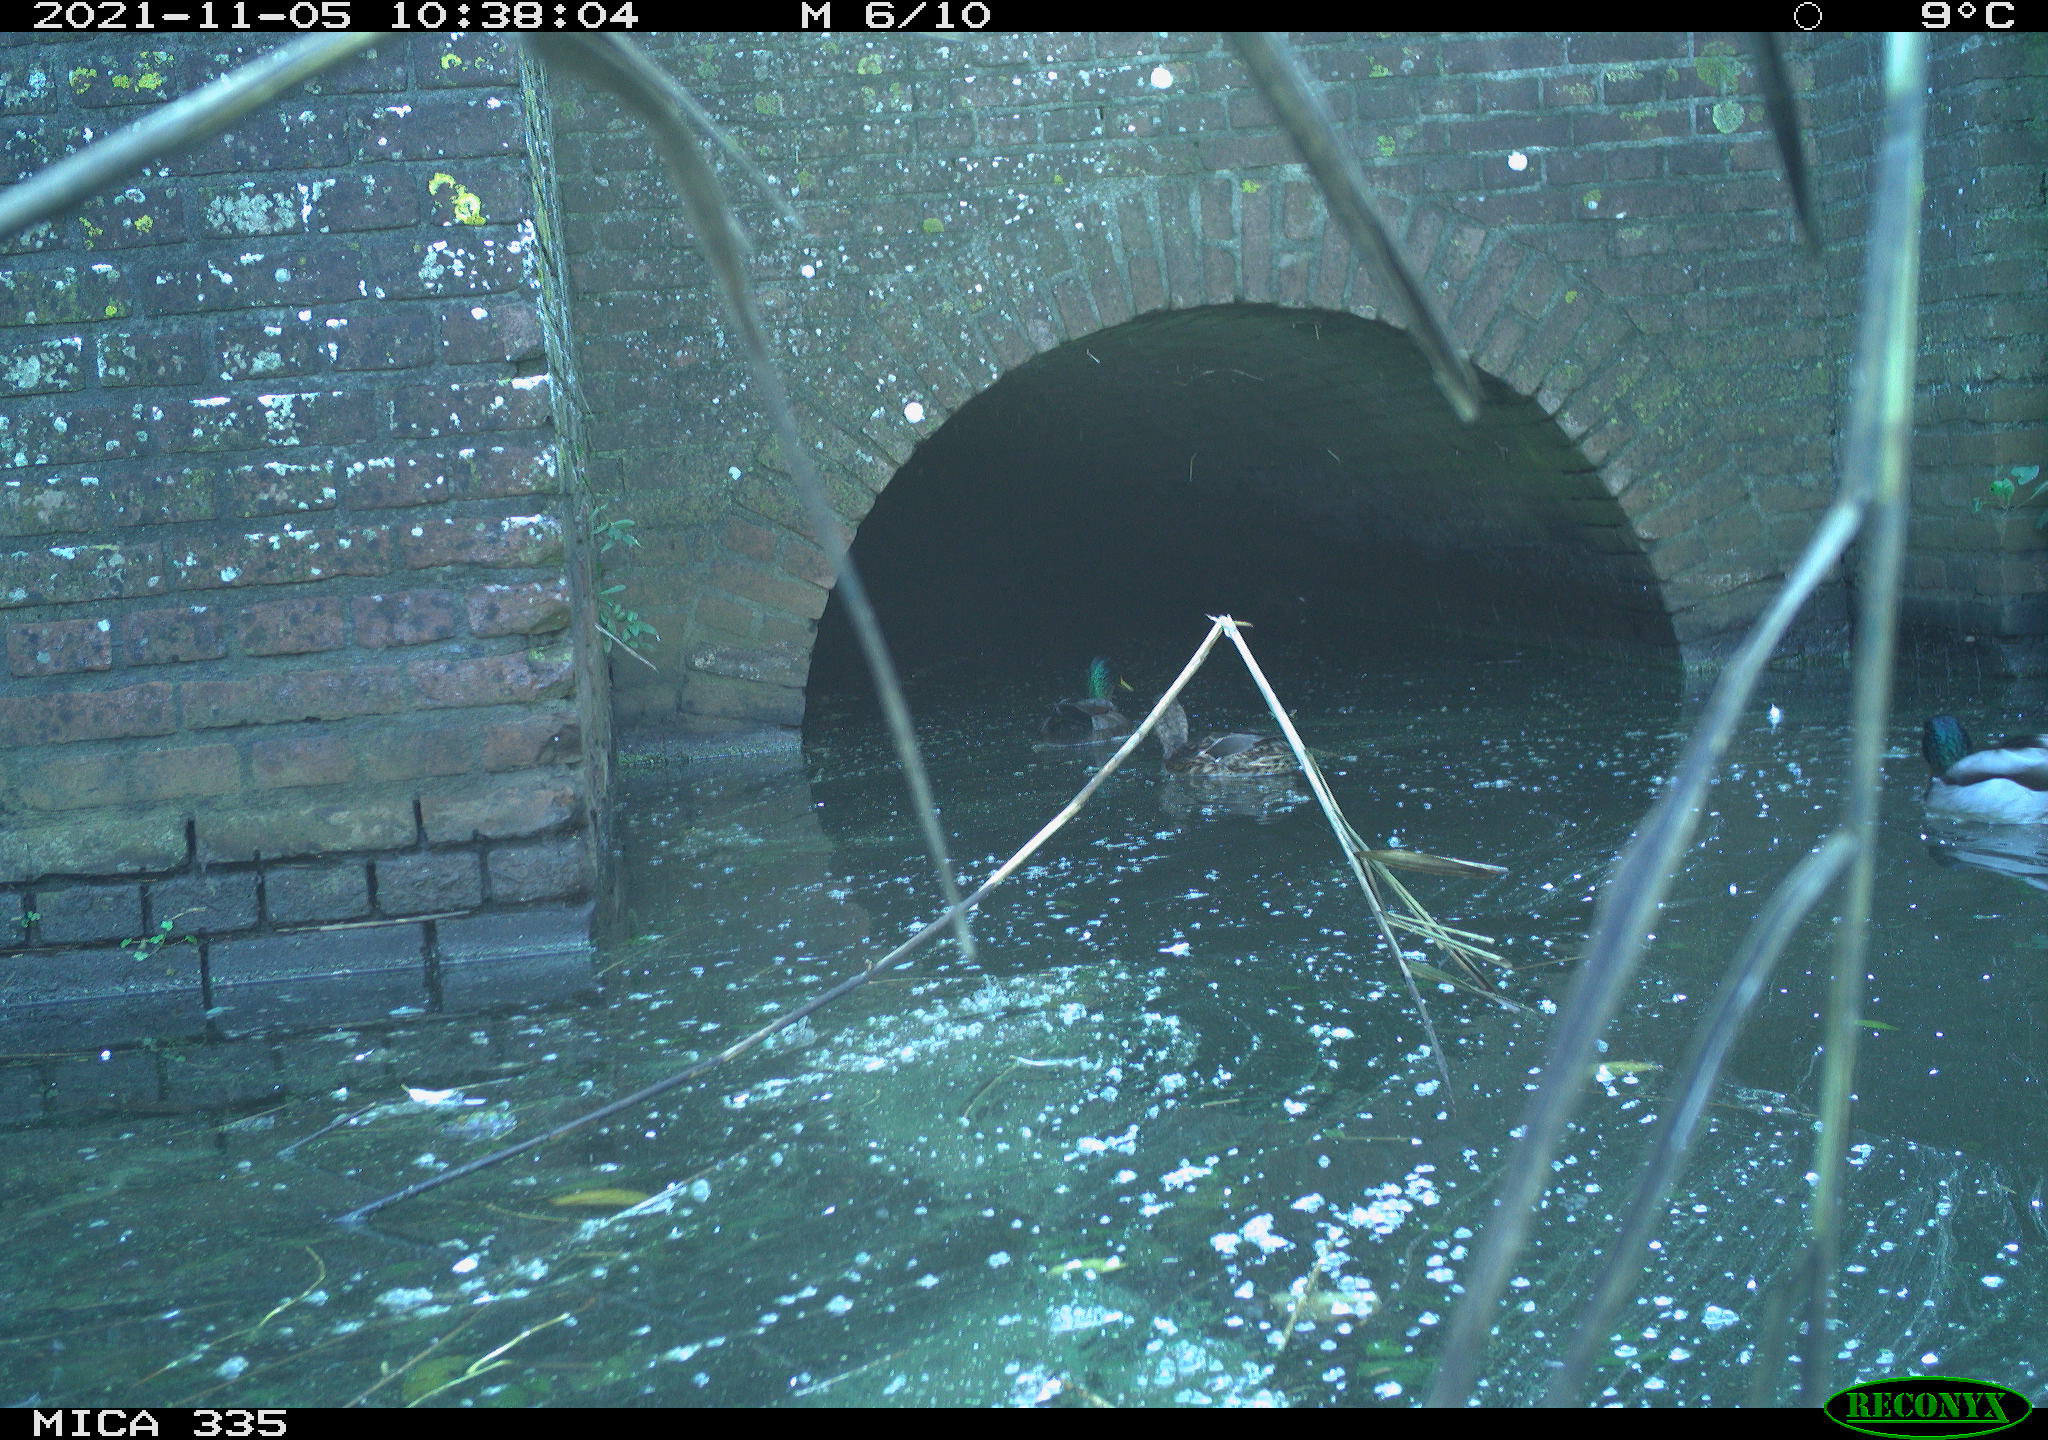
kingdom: Animalia
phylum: Chordata
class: Aves
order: Anseriformes
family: Anatidae
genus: Anas
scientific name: Anas platyrhynchos
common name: Mallard
